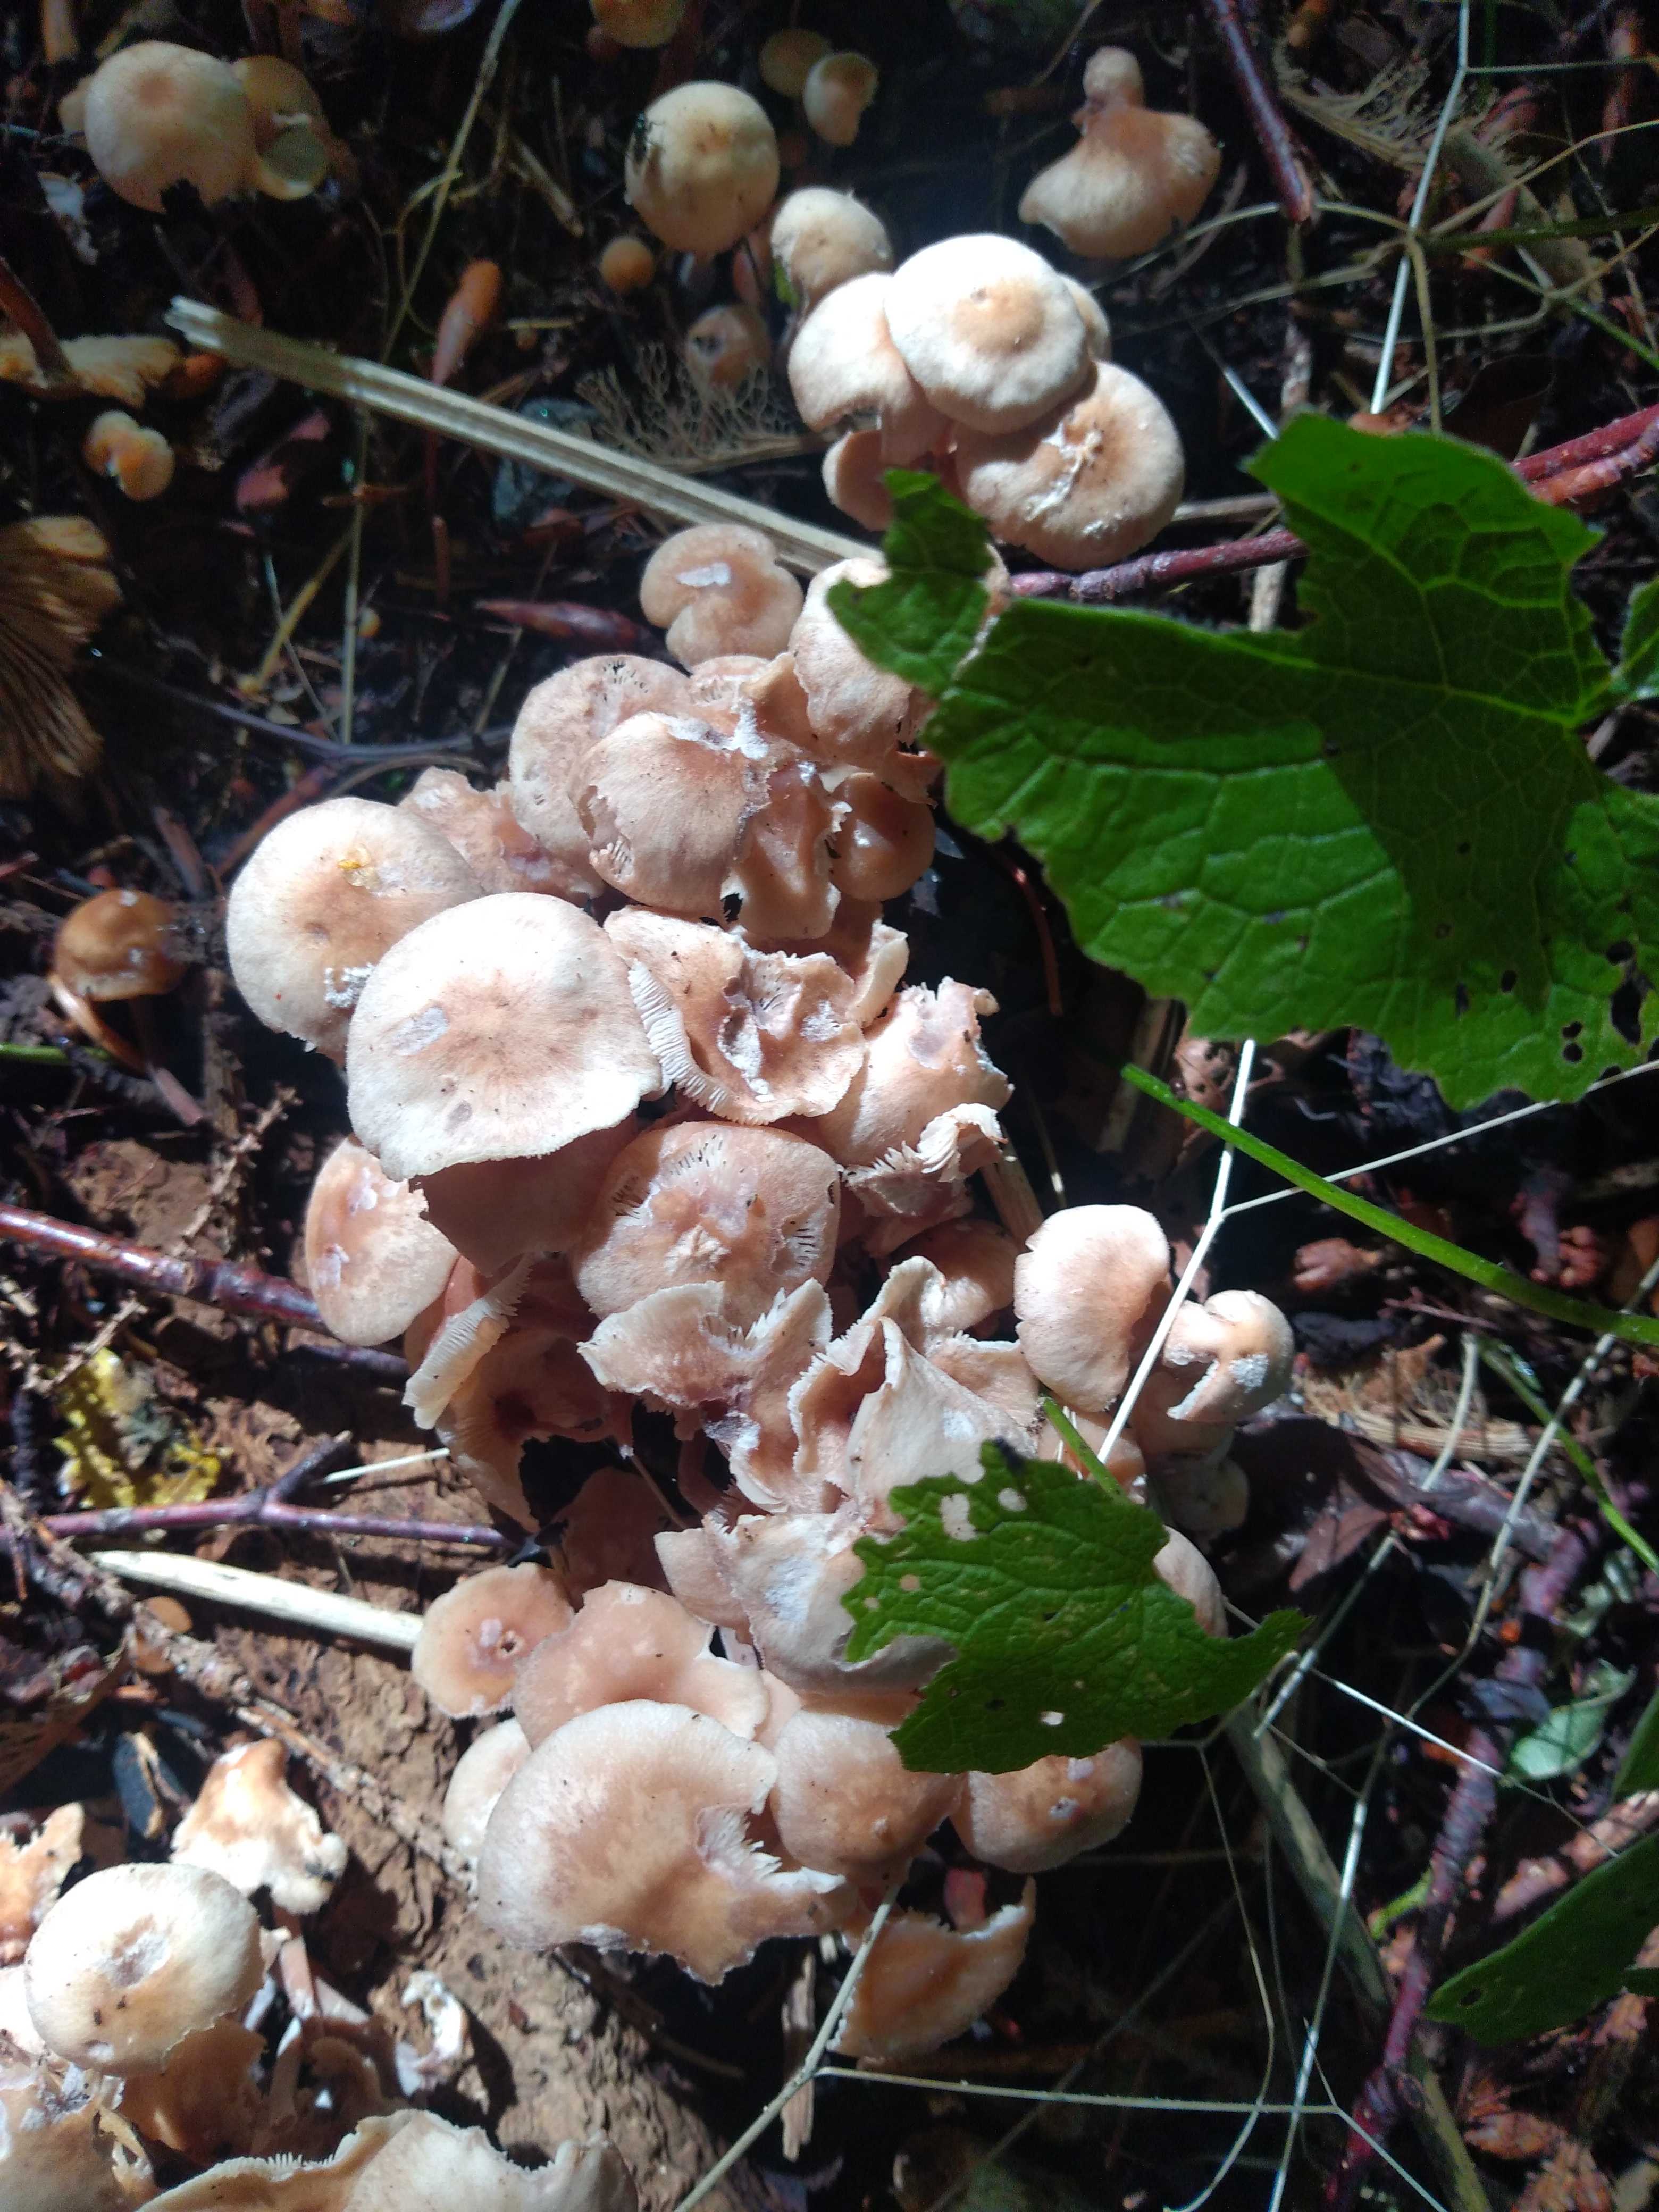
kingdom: Fungi
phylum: Basidiomycota
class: Agaricomycetes
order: Agaricales
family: Omphalotaceae
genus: Collybiopsis
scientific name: Collybiopsis confluens
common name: knippe-fladhat
